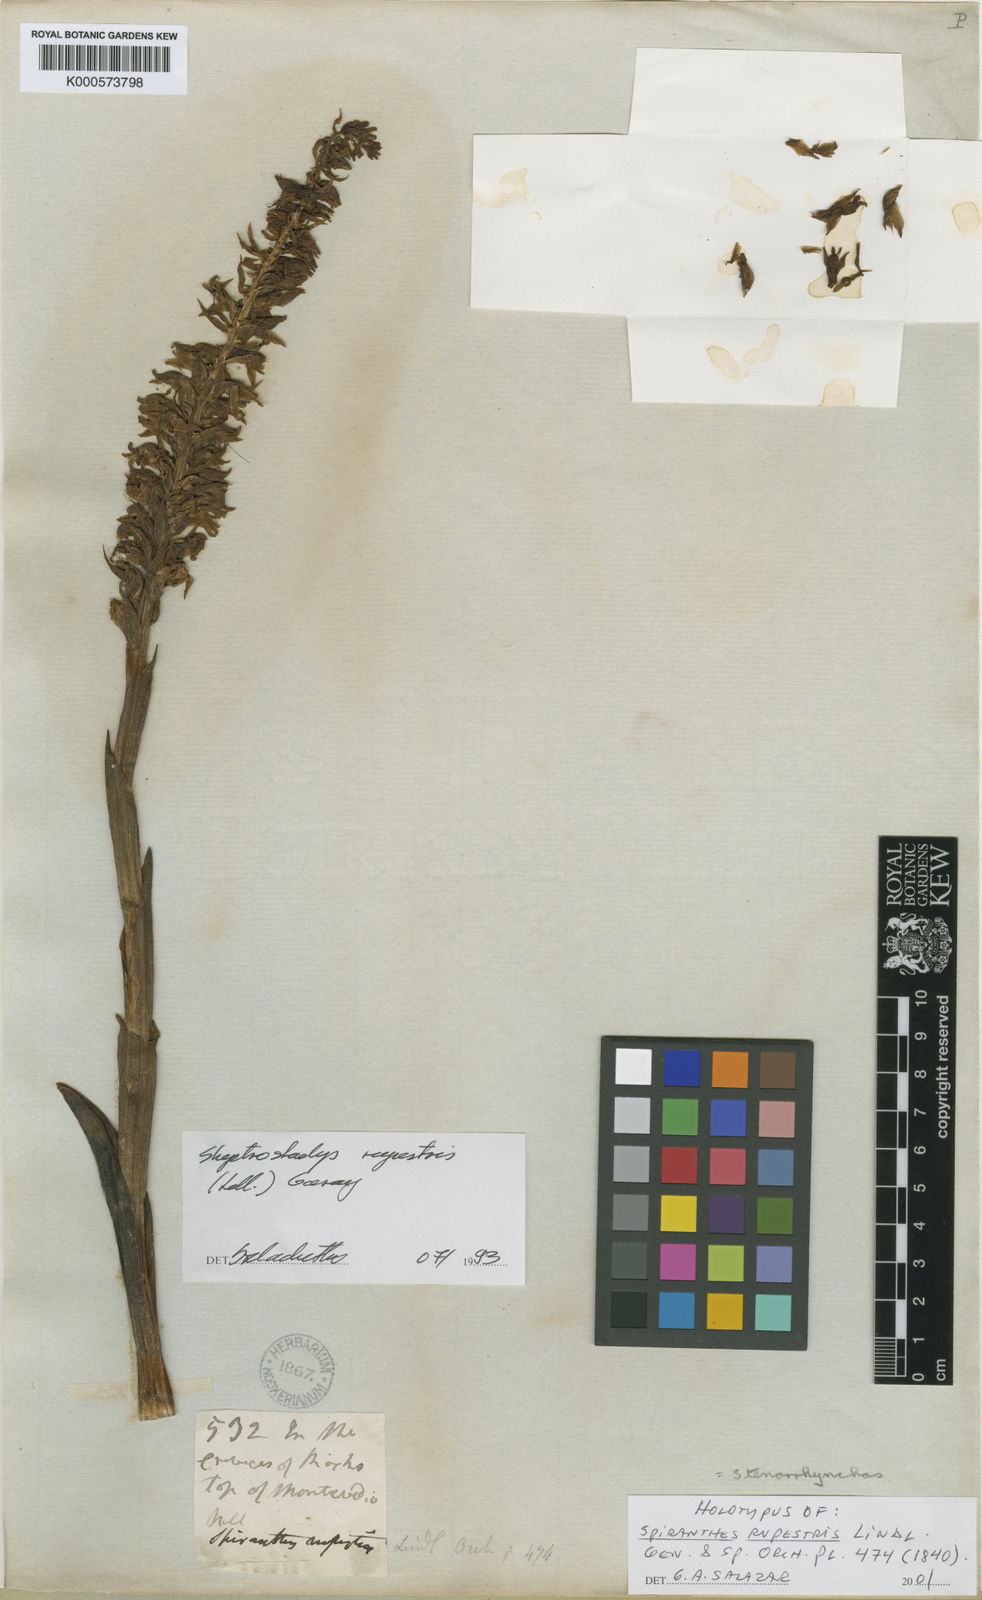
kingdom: Plantae
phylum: Tracheophyta
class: Liliopsida
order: Asparagales
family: Orchidaceae
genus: Skeptrostachys
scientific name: Skeptrostachys rupestris
